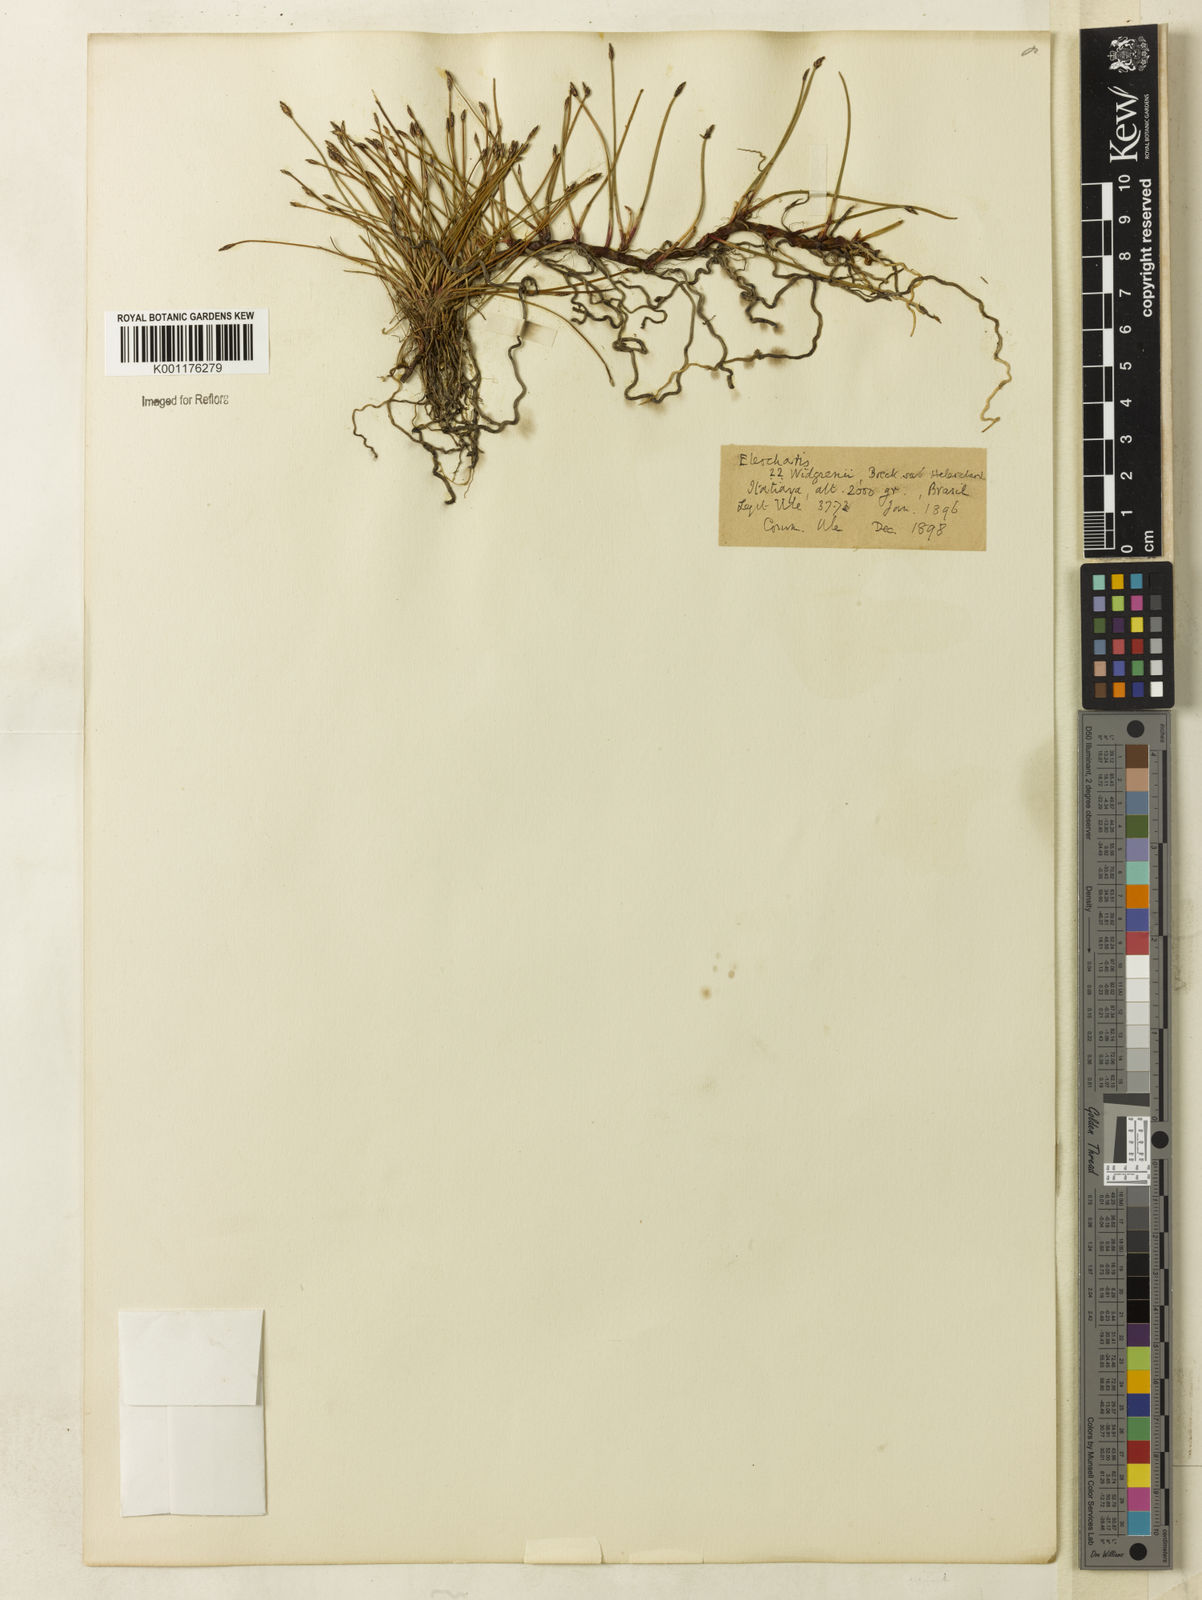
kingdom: Plantae
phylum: Tracheophyta
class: Liliopsida
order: Poales
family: Cyperaceae
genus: Eleocharis
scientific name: Eleocharis subarticulata
